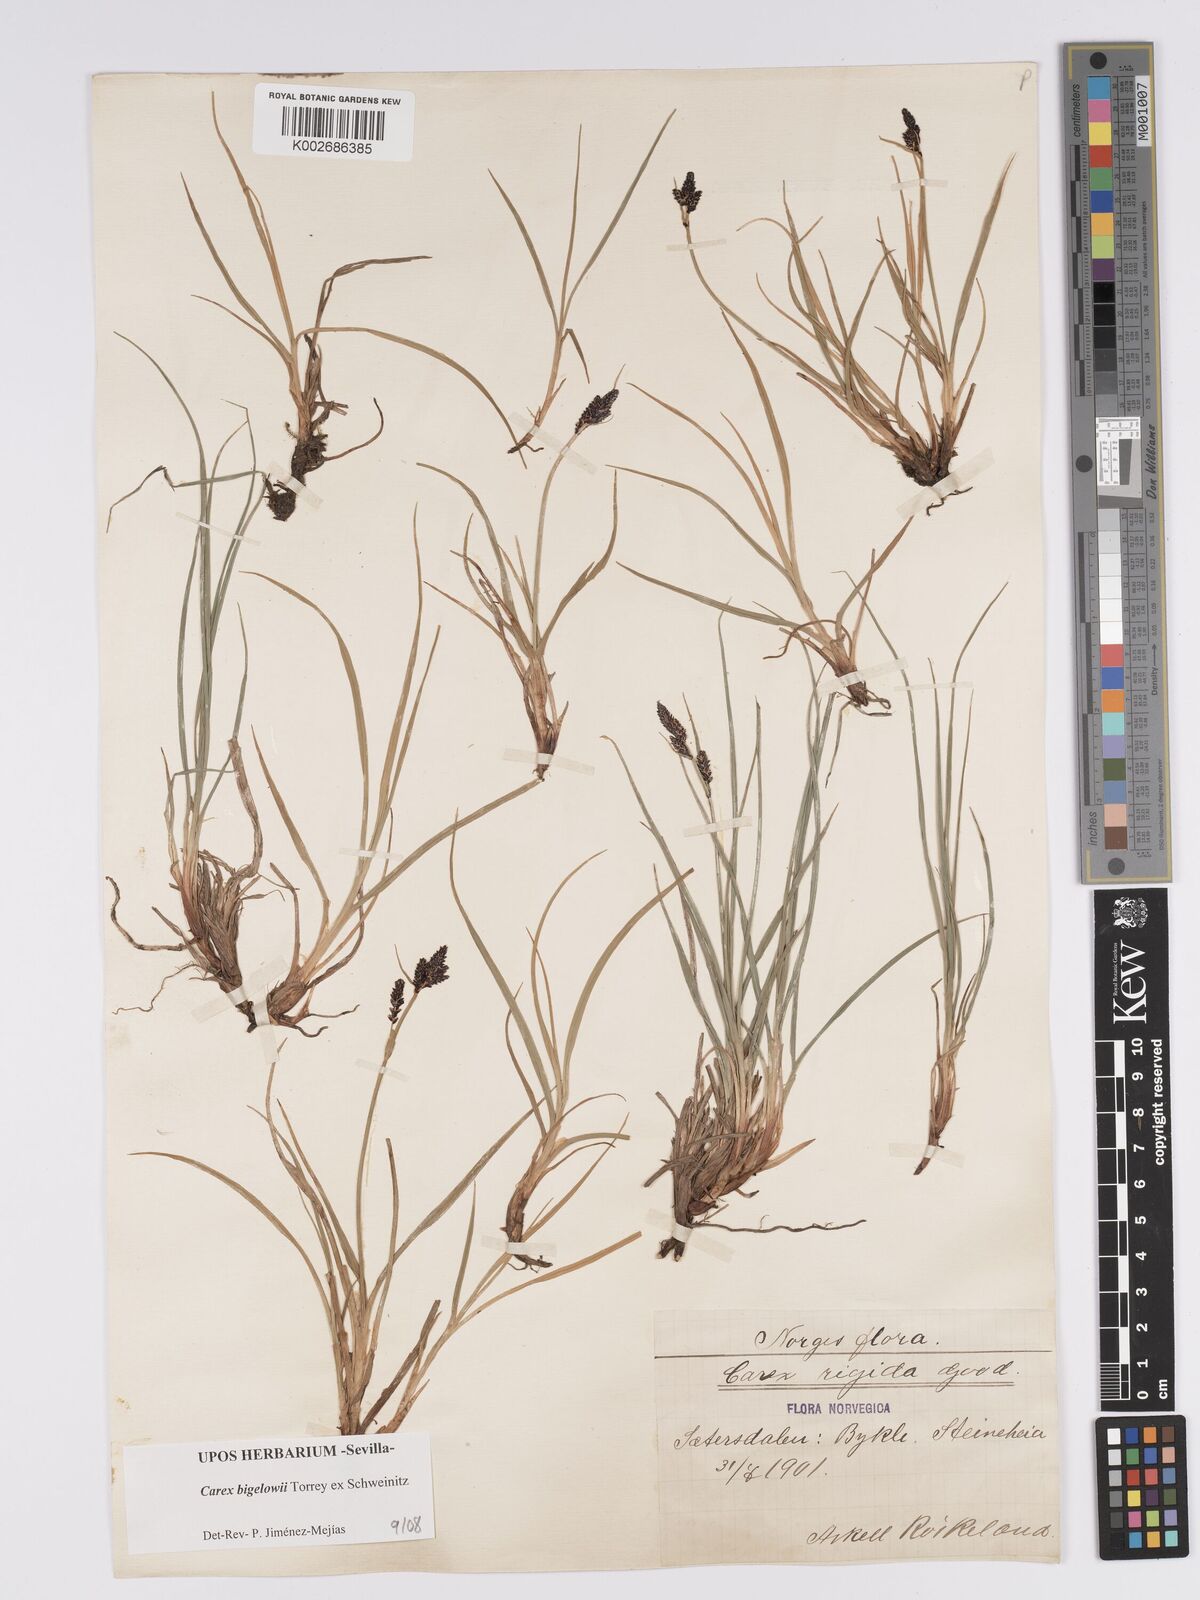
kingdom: Plantae
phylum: Tracheophyta
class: Liliopsida
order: Poales
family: Cyperaceae
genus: Carex
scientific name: Carex bigelowii
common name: Stiff sedge
